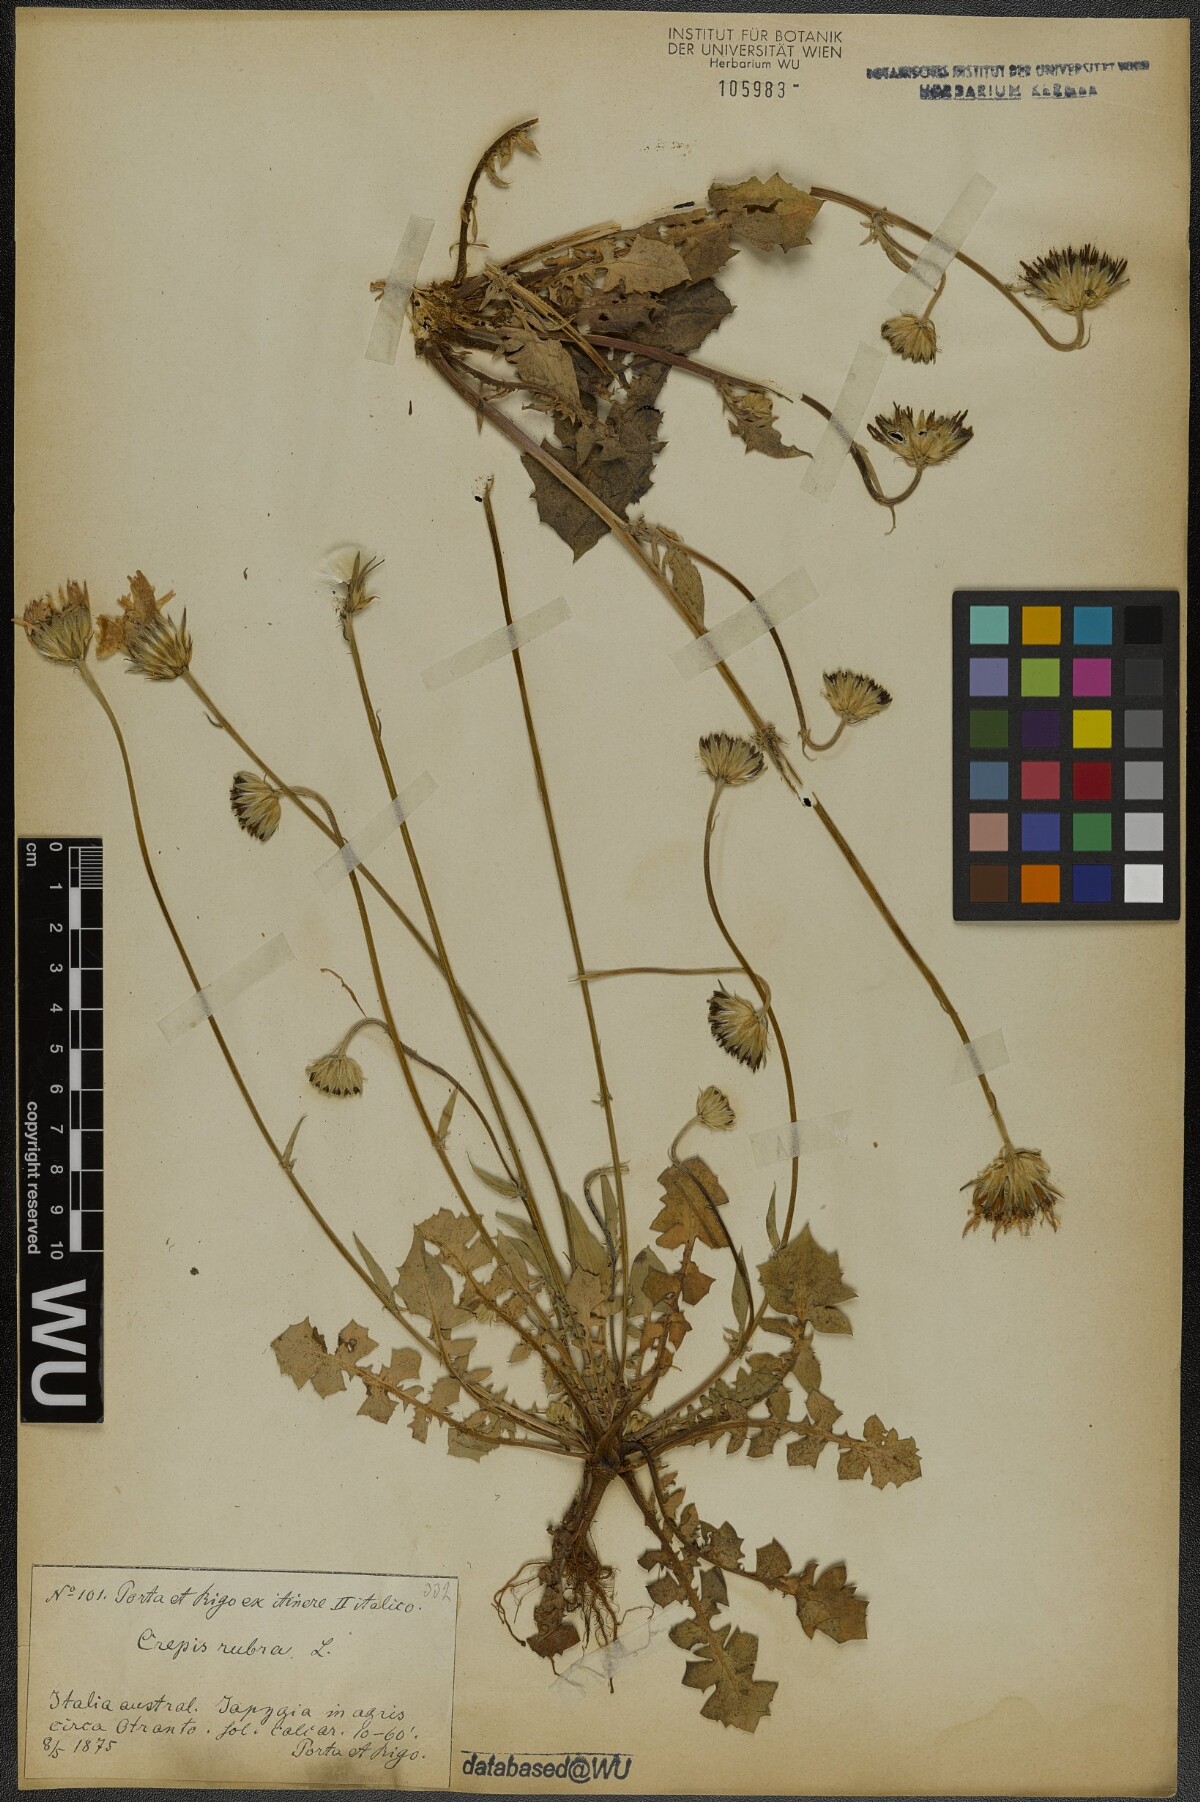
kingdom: Plantae
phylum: Tracheophyta
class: Magnoliopsida
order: Asterales
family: Asteraceae
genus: Crepis
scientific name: Crepis rubra
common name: Pink hawk's-beard
